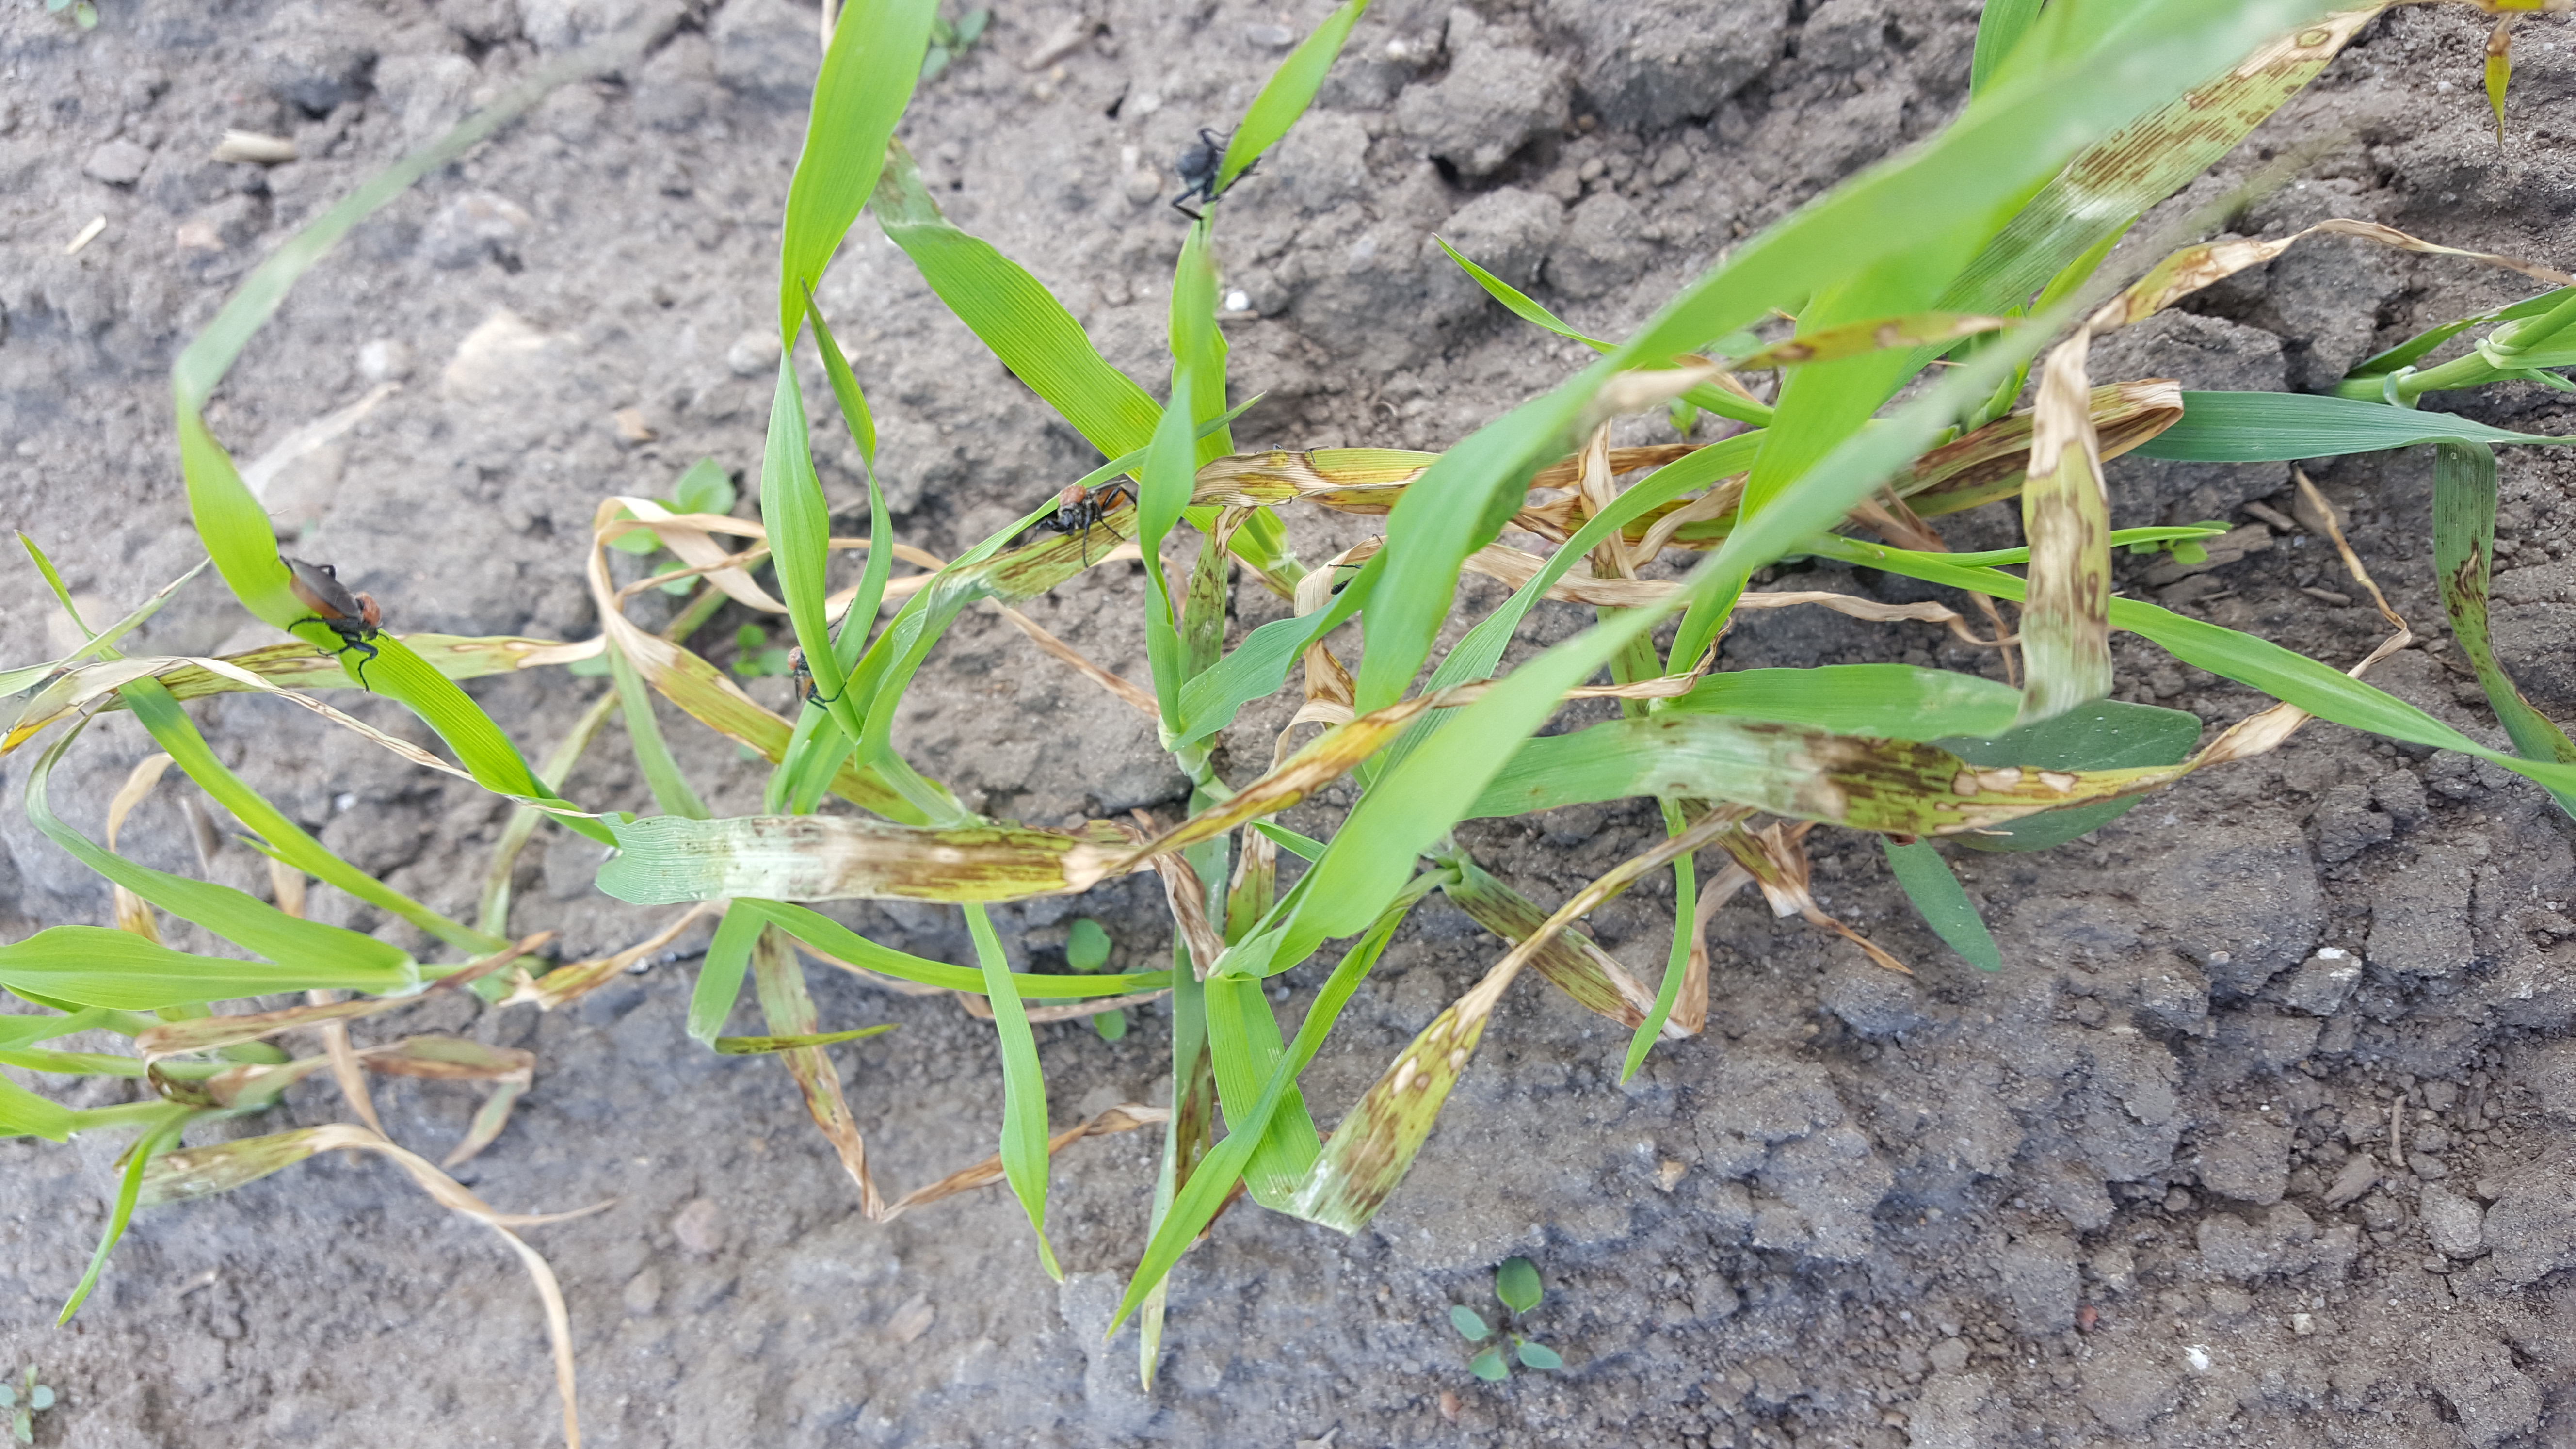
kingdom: Plantae
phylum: Tracheophyta
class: Liliopsida
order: Poales
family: Poaceae
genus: Hordeum
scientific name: Hordeum vulgare
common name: Common barley
